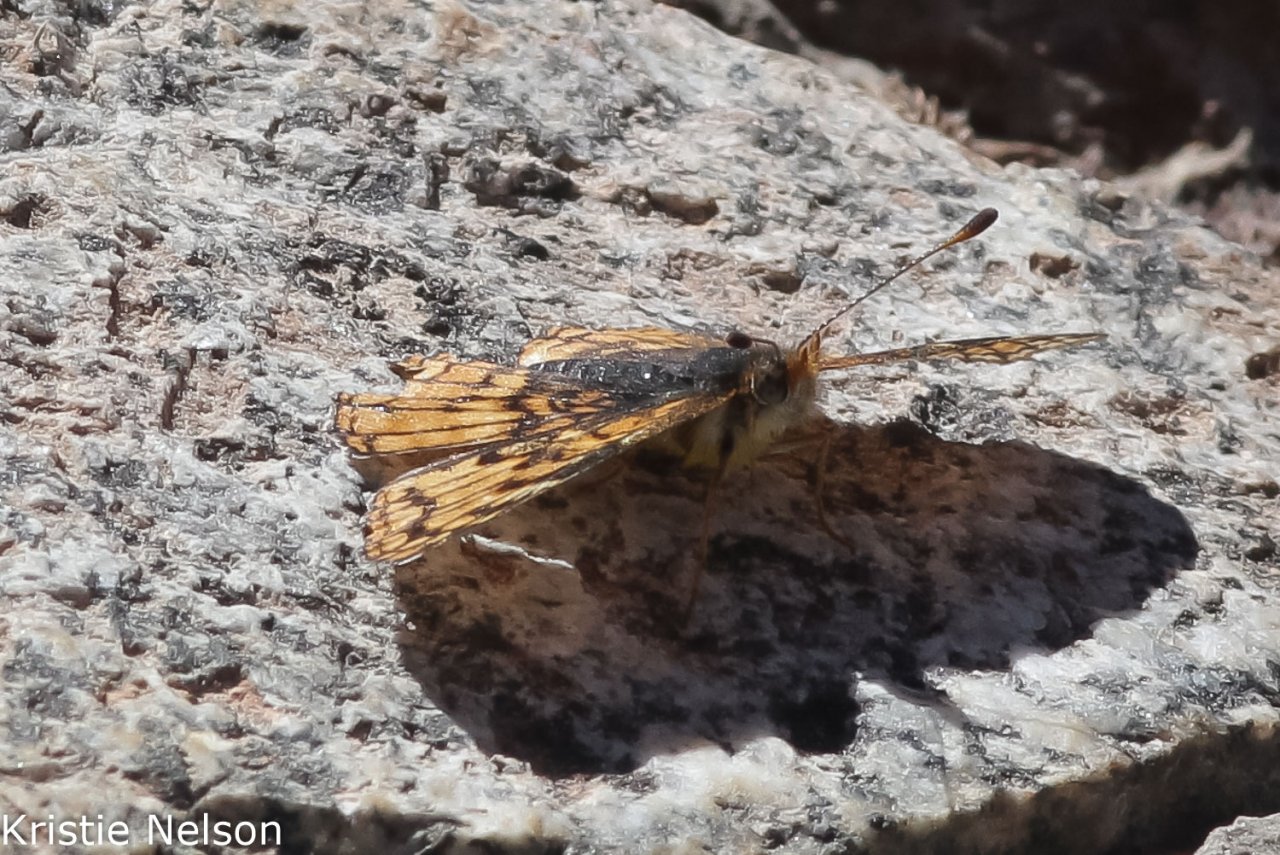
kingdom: Animalia
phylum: Arthropoda
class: Insecta
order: Lepidoptera
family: Nymphalidae
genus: Chlosyne
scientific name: Chlosyne palla
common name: Rockslide Checkerspot
